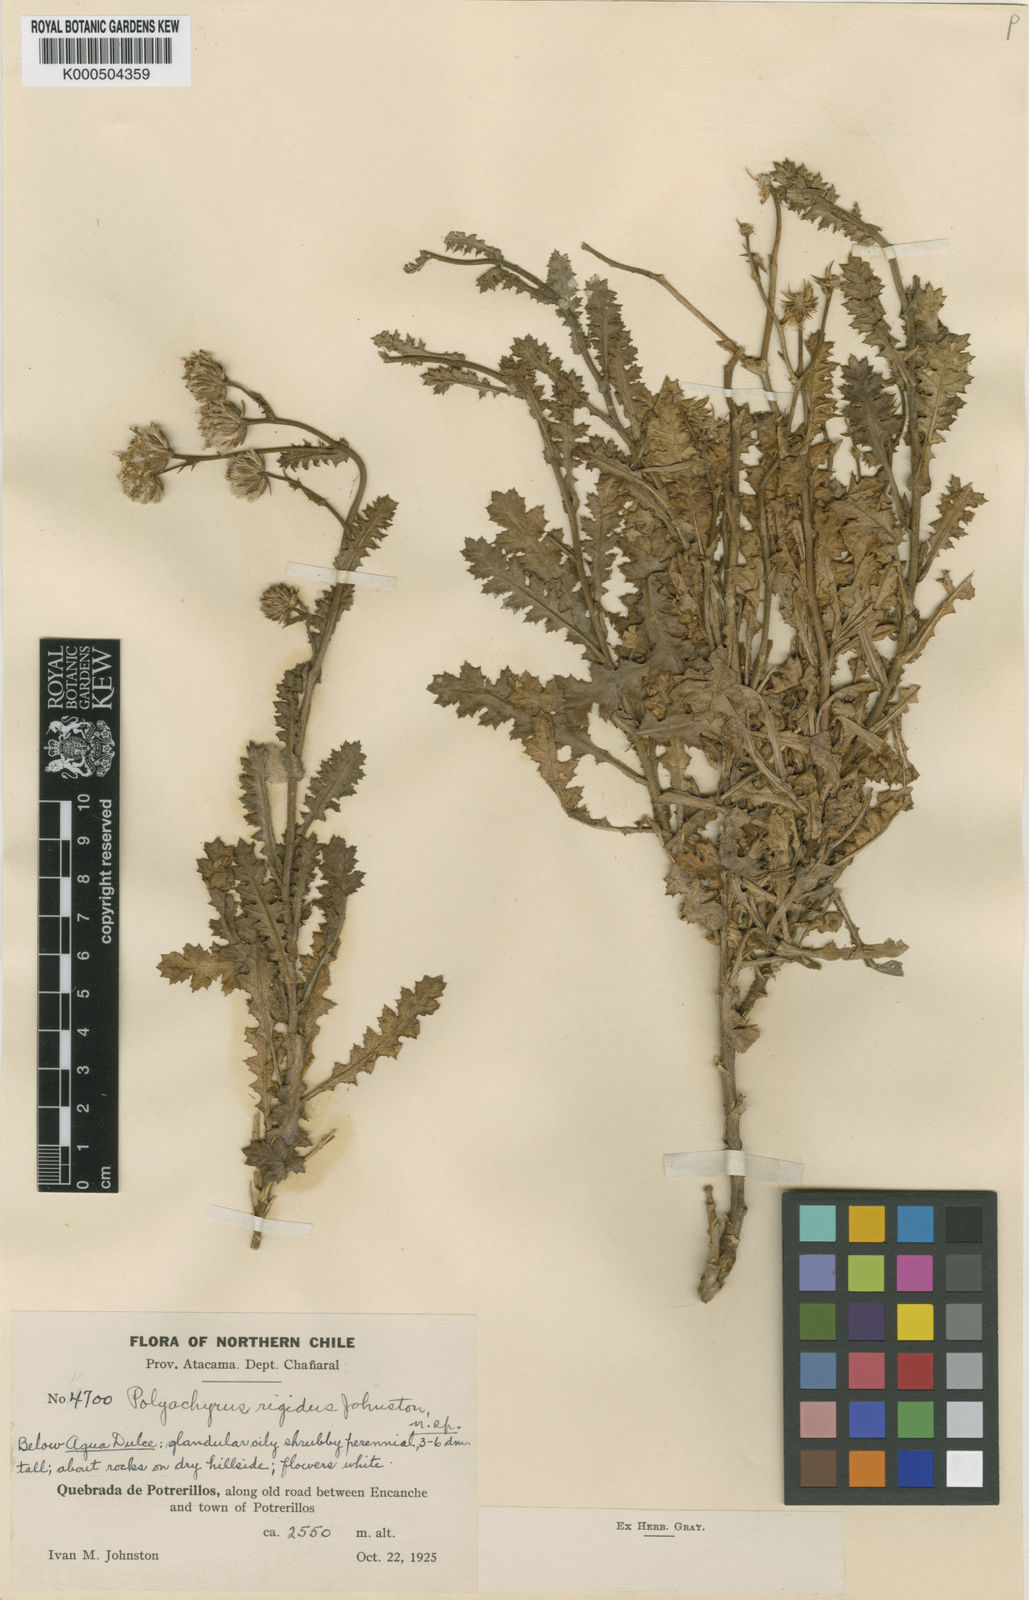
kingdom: Plantae
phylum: Tracheophyta
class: Magnoliopsida
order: Asterales
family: Asteraceae
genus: Polyachyrus
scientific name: Polyachyrus carduoides
